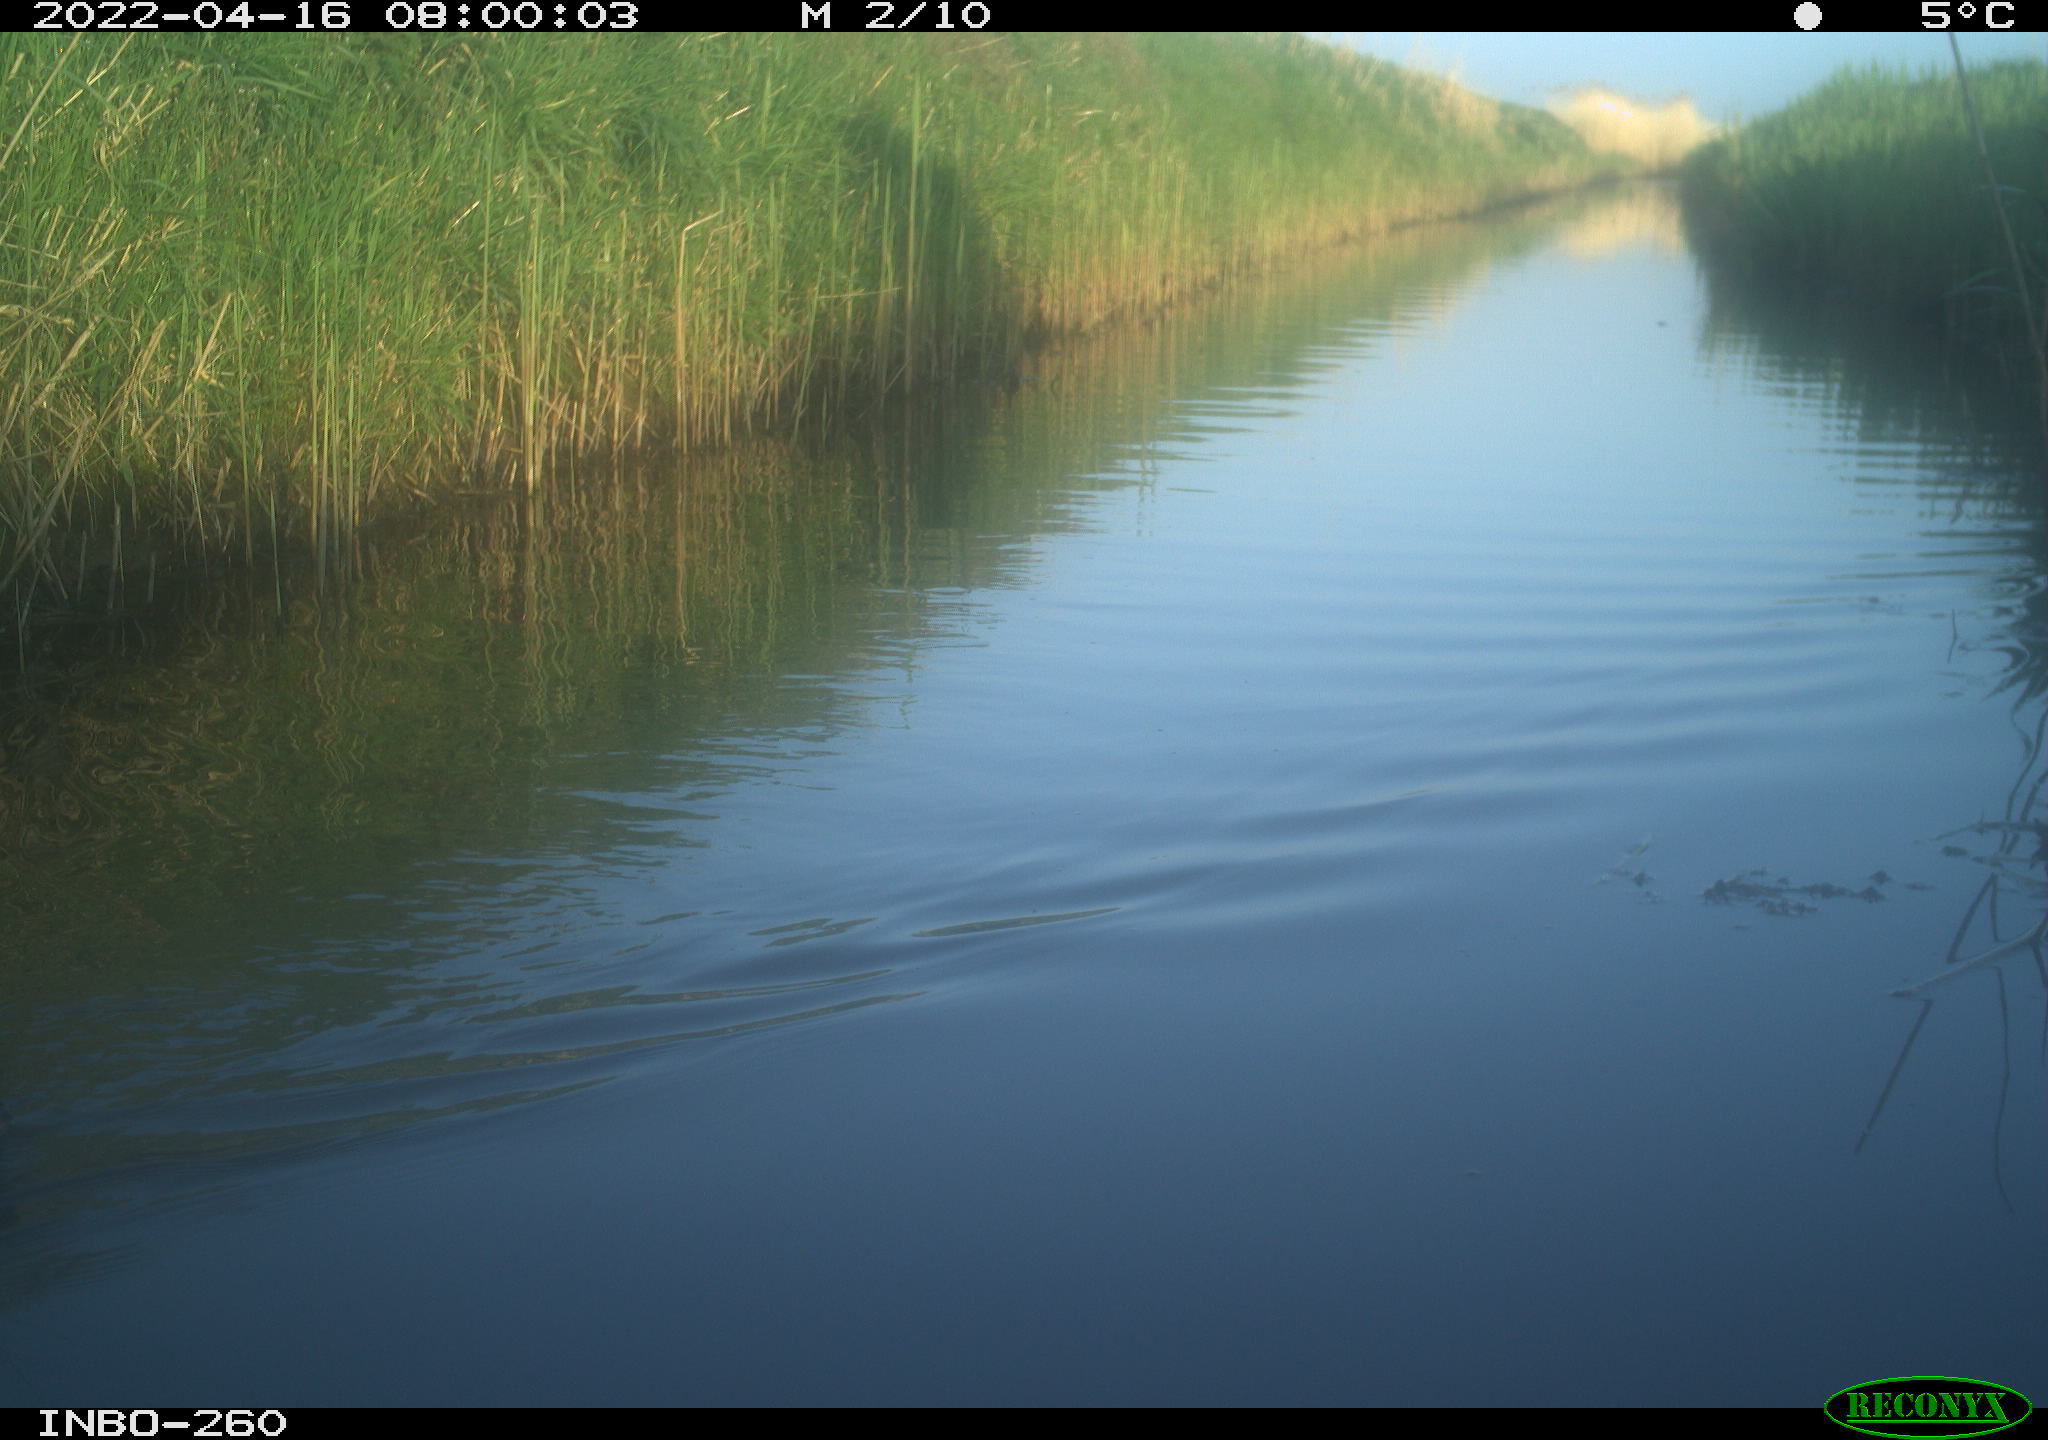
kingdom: Animalia
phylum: Chordata
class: Aves
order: Gruiformes
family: Rallidae
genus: Fulica
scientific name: Fulica atra
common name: Eurasian coot
